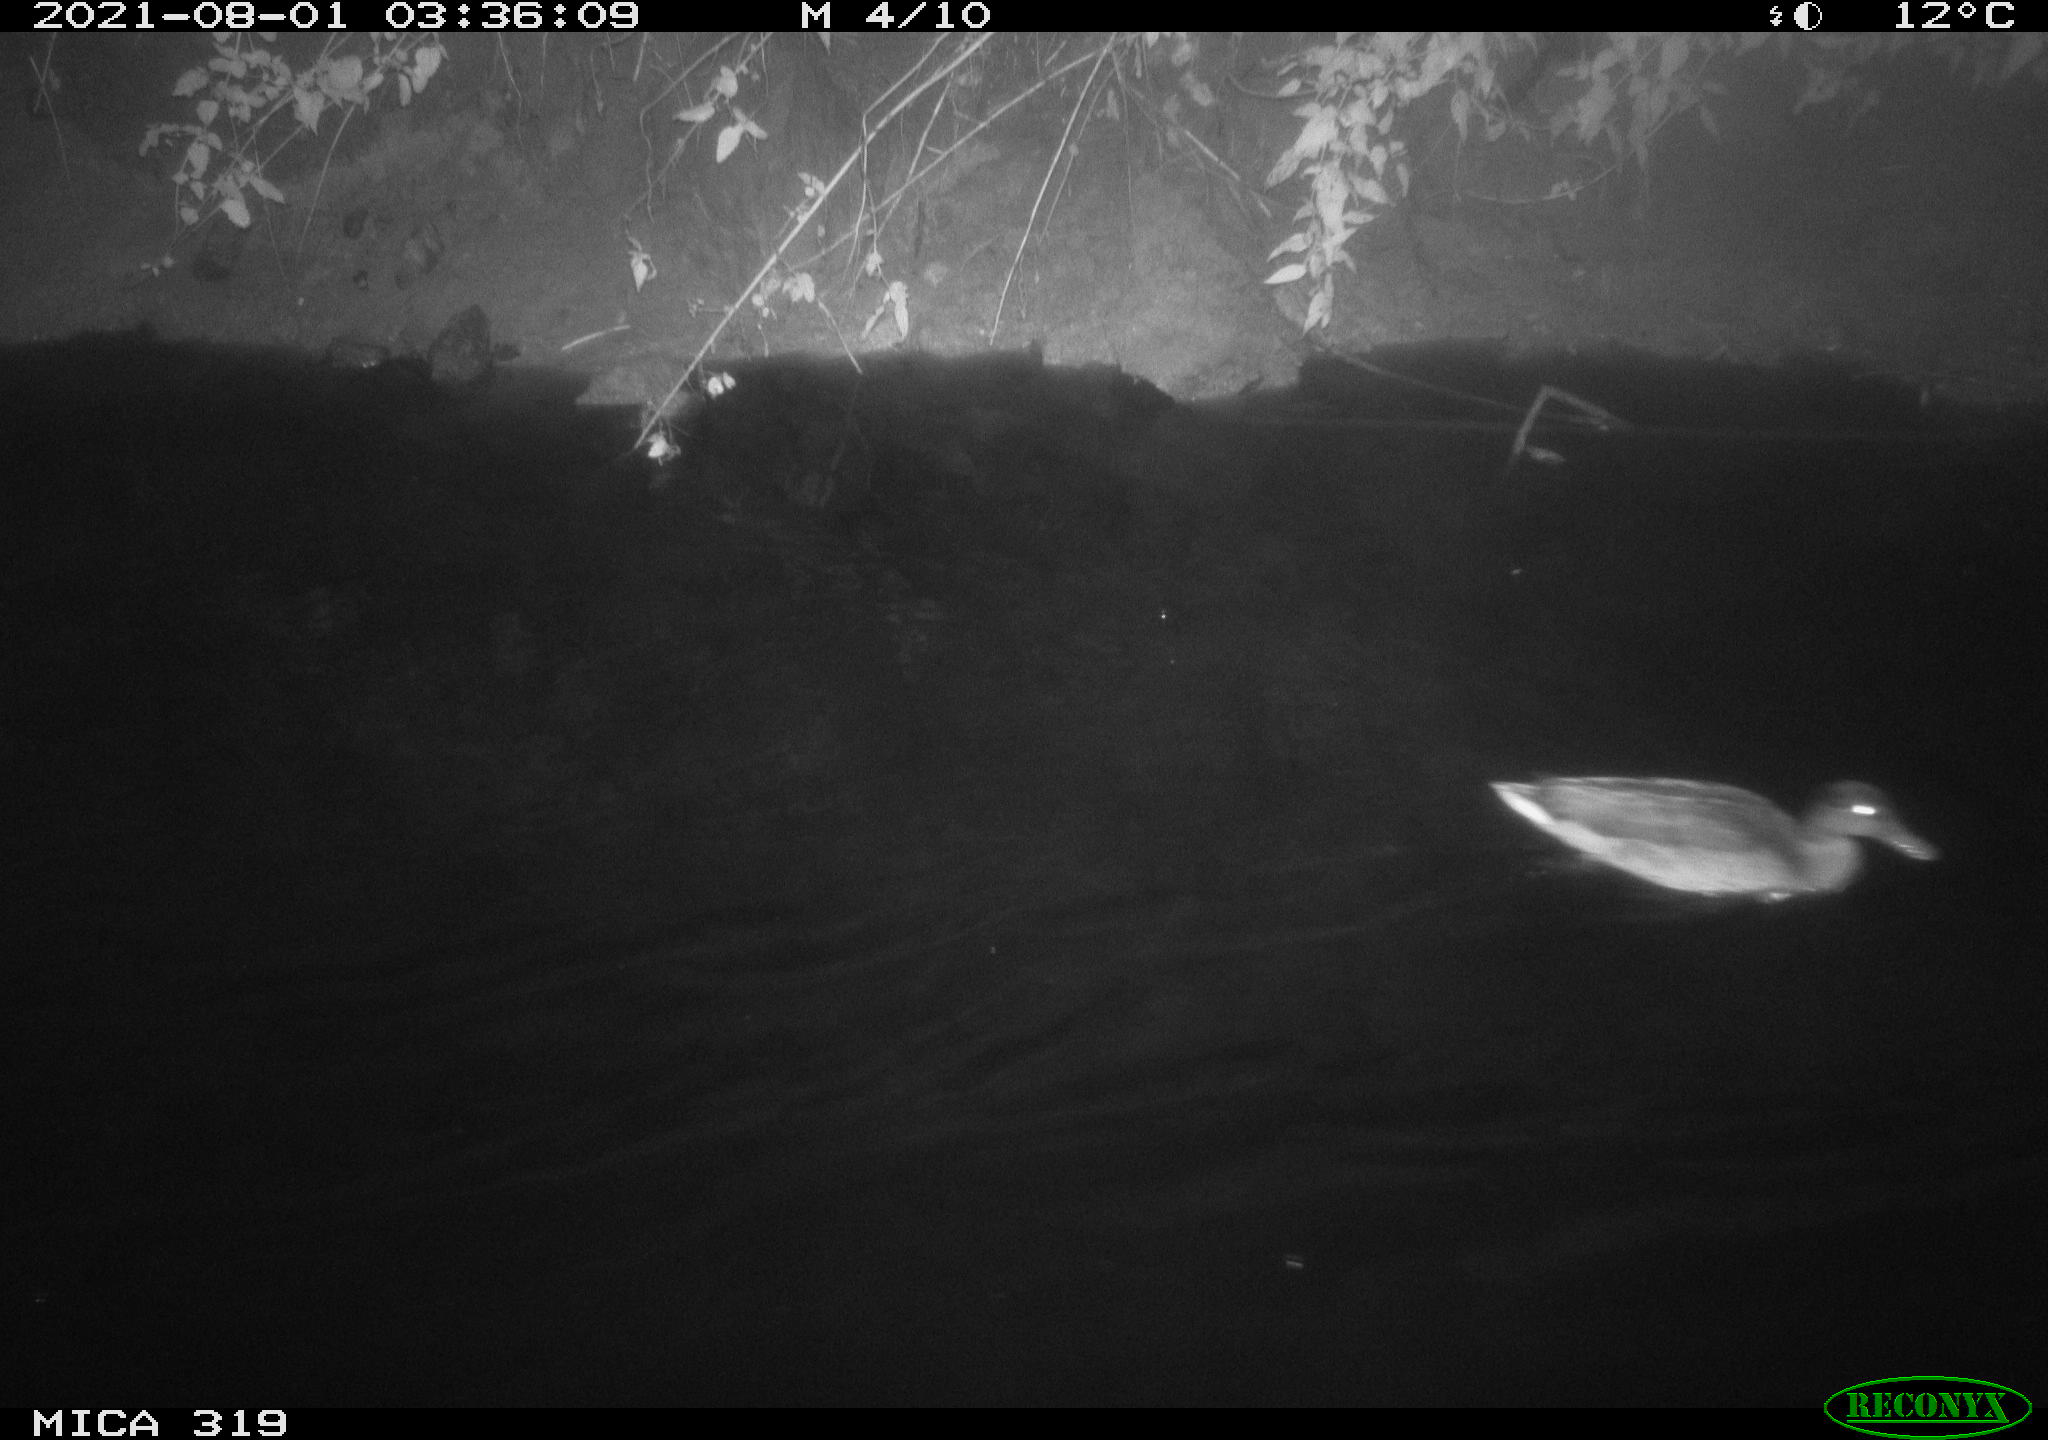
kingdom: Animalia
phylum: Chordata
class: Aves
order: Anseriformes
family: Anatidae
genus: Anas
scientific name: Anas platyrhynchos
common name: Mallard
